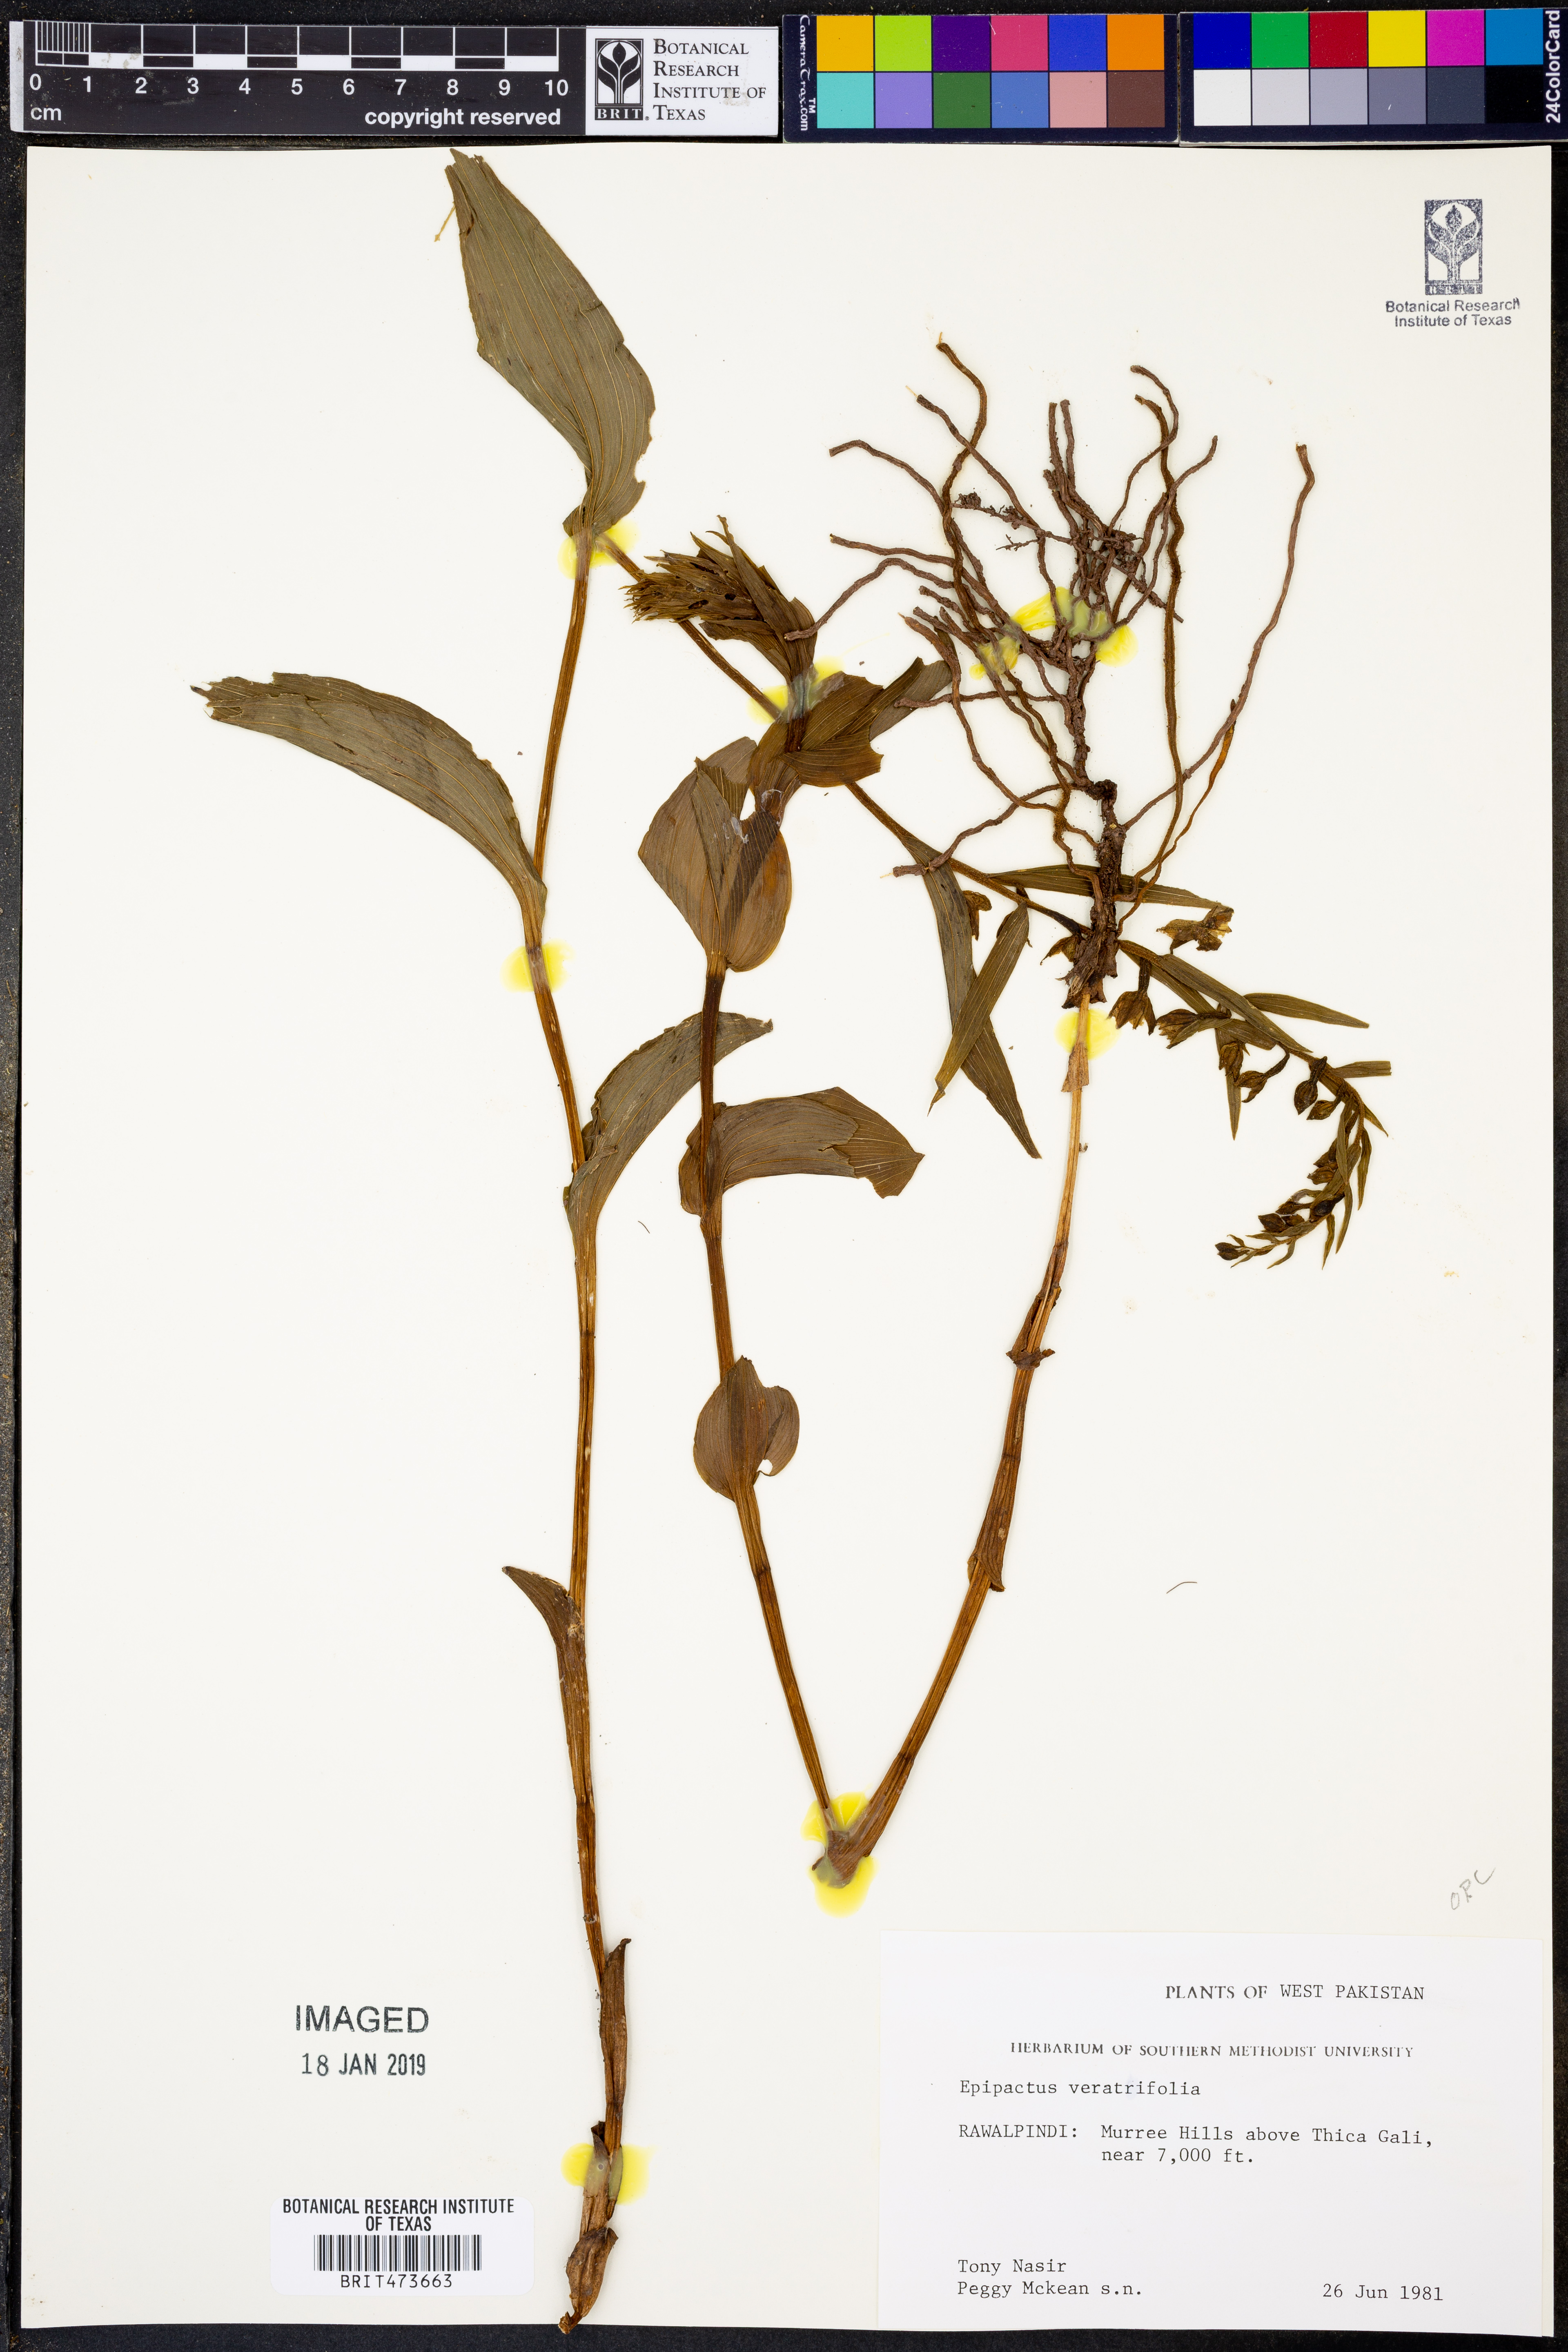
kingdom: Plantae
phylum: Tracheophyta
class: Liliopsida
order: Asparagales
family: Orchidaceae
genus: Epipactis
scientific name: Epipactis veratrifolia
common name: Eastern marsh helleborine
